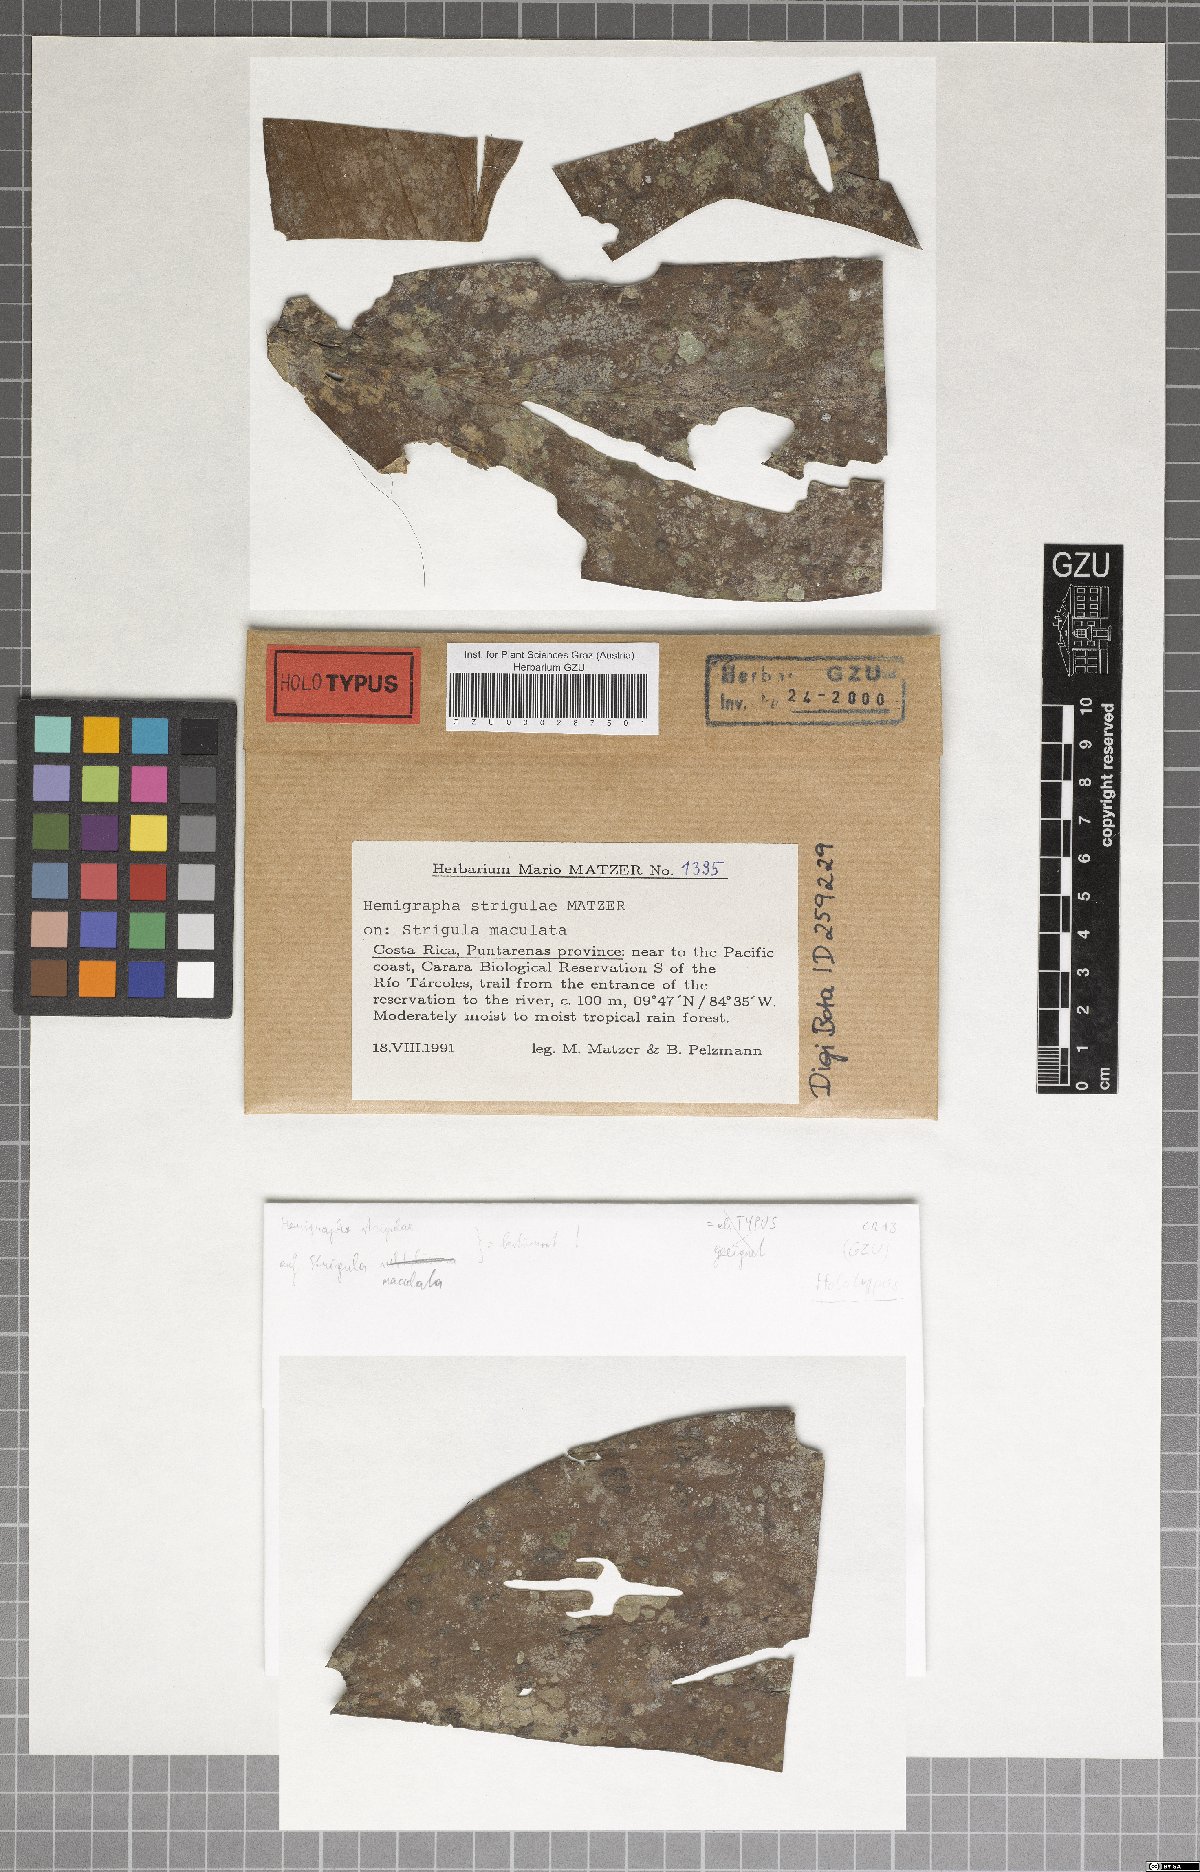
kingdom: Fungi
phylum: Ascomycota
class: Dothideomycetes
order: Asterinales
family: Hemigraphaceae
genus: Hemigrapha
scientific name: Hemigrapha strigulae
